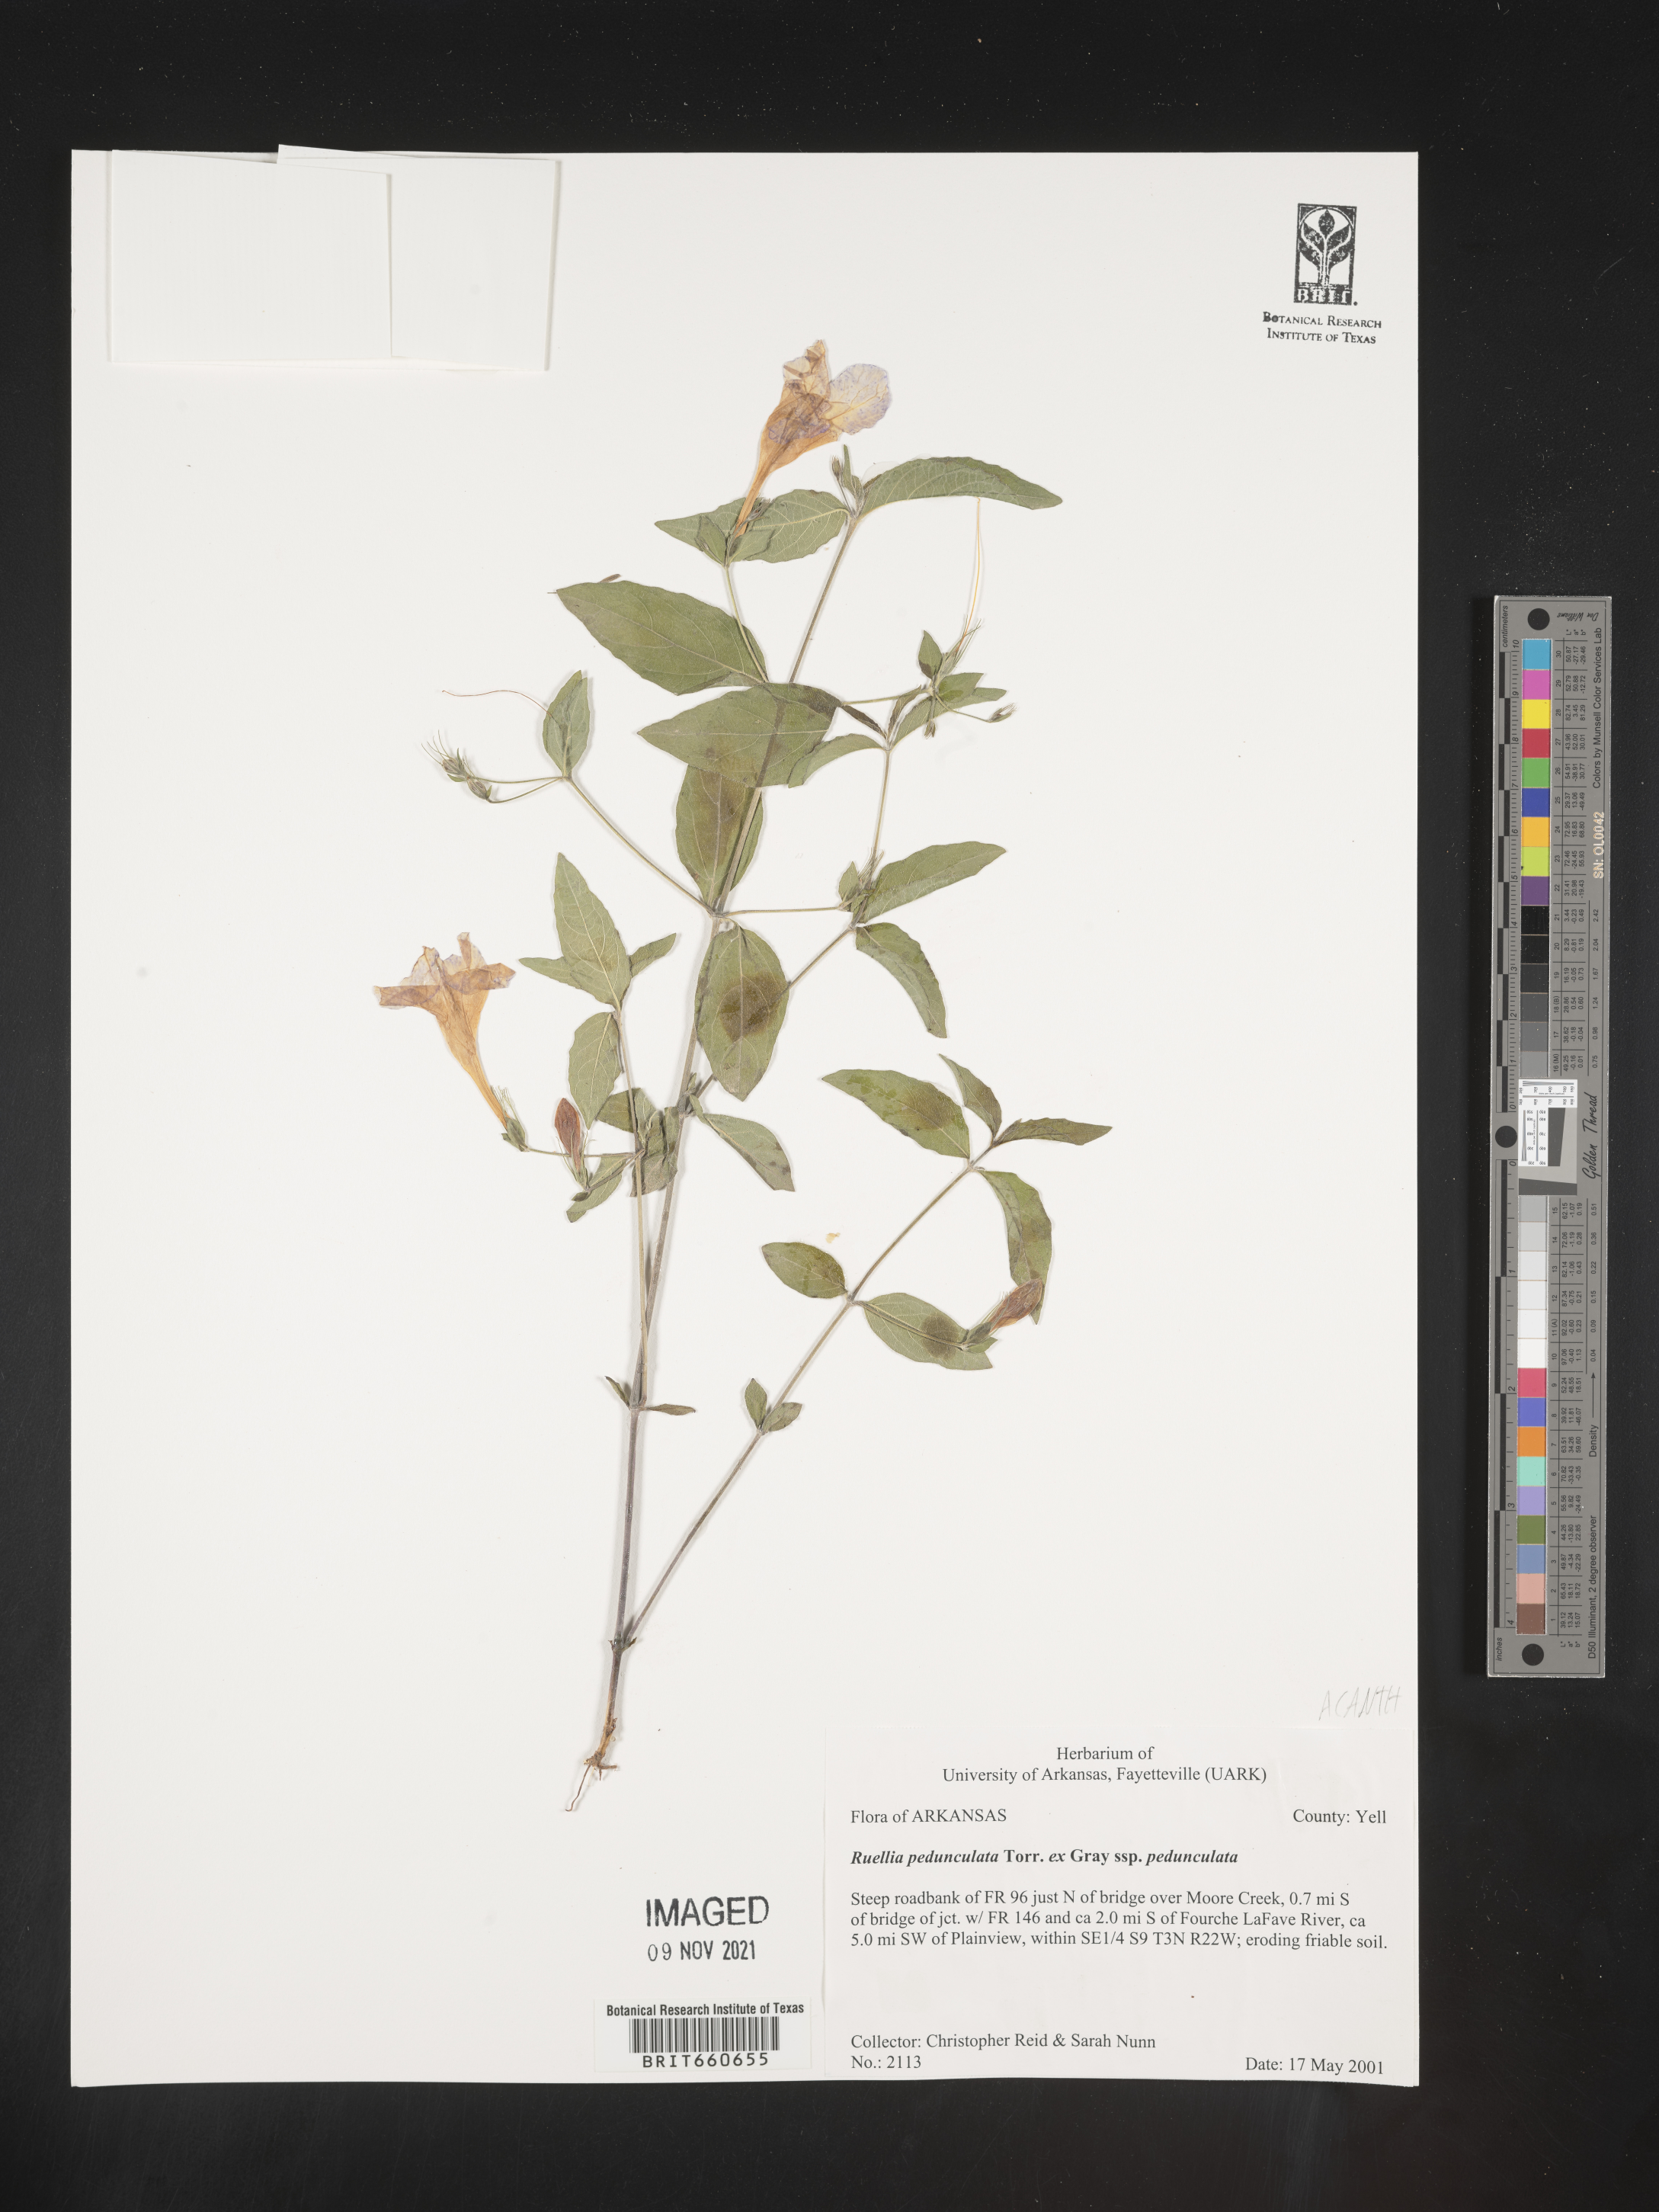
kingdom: Plantae
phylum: Tracheophyta
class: Magnoliopsida
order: Lamiales
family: Acanthaceae
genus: Ruellia
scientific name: Ruellia pedunculata
